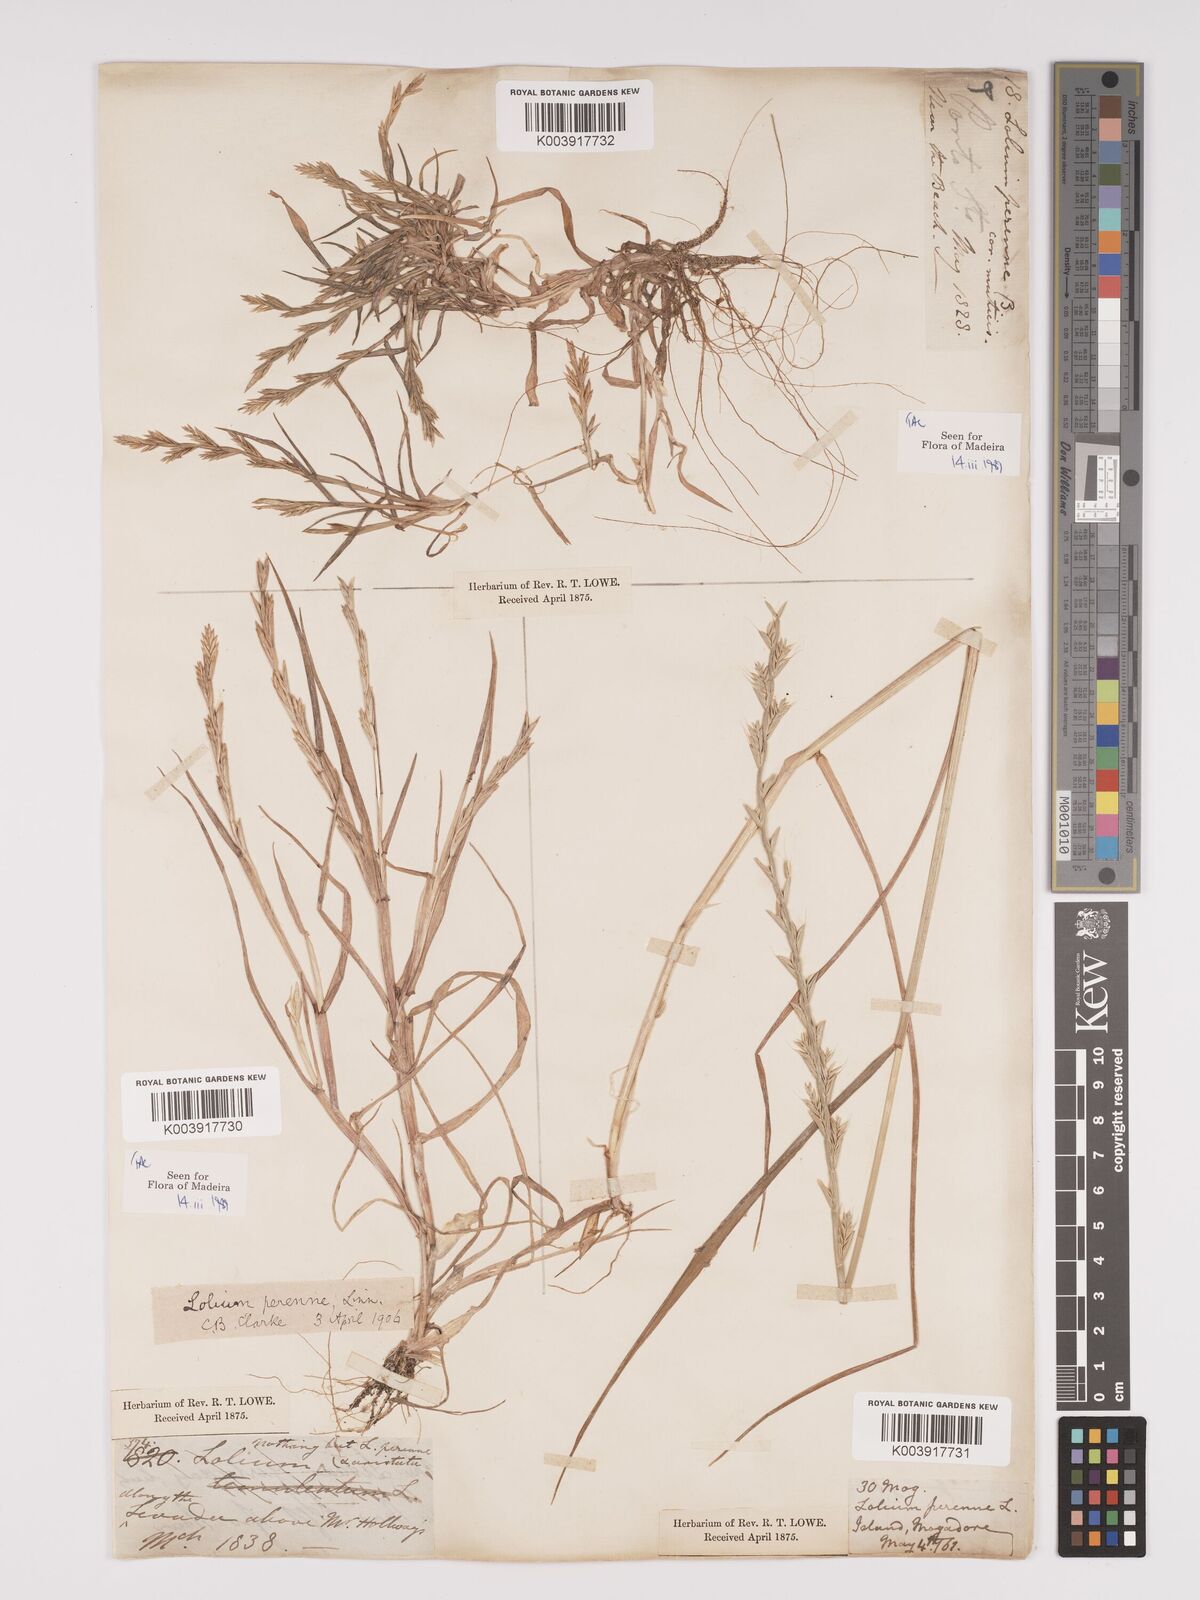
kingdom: Plantae
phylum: Tracheophyta
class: Liliopsida
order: Poales
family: Poaceae
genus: Lolium
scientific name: Lolium perenne
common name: Perennial ryegrass
